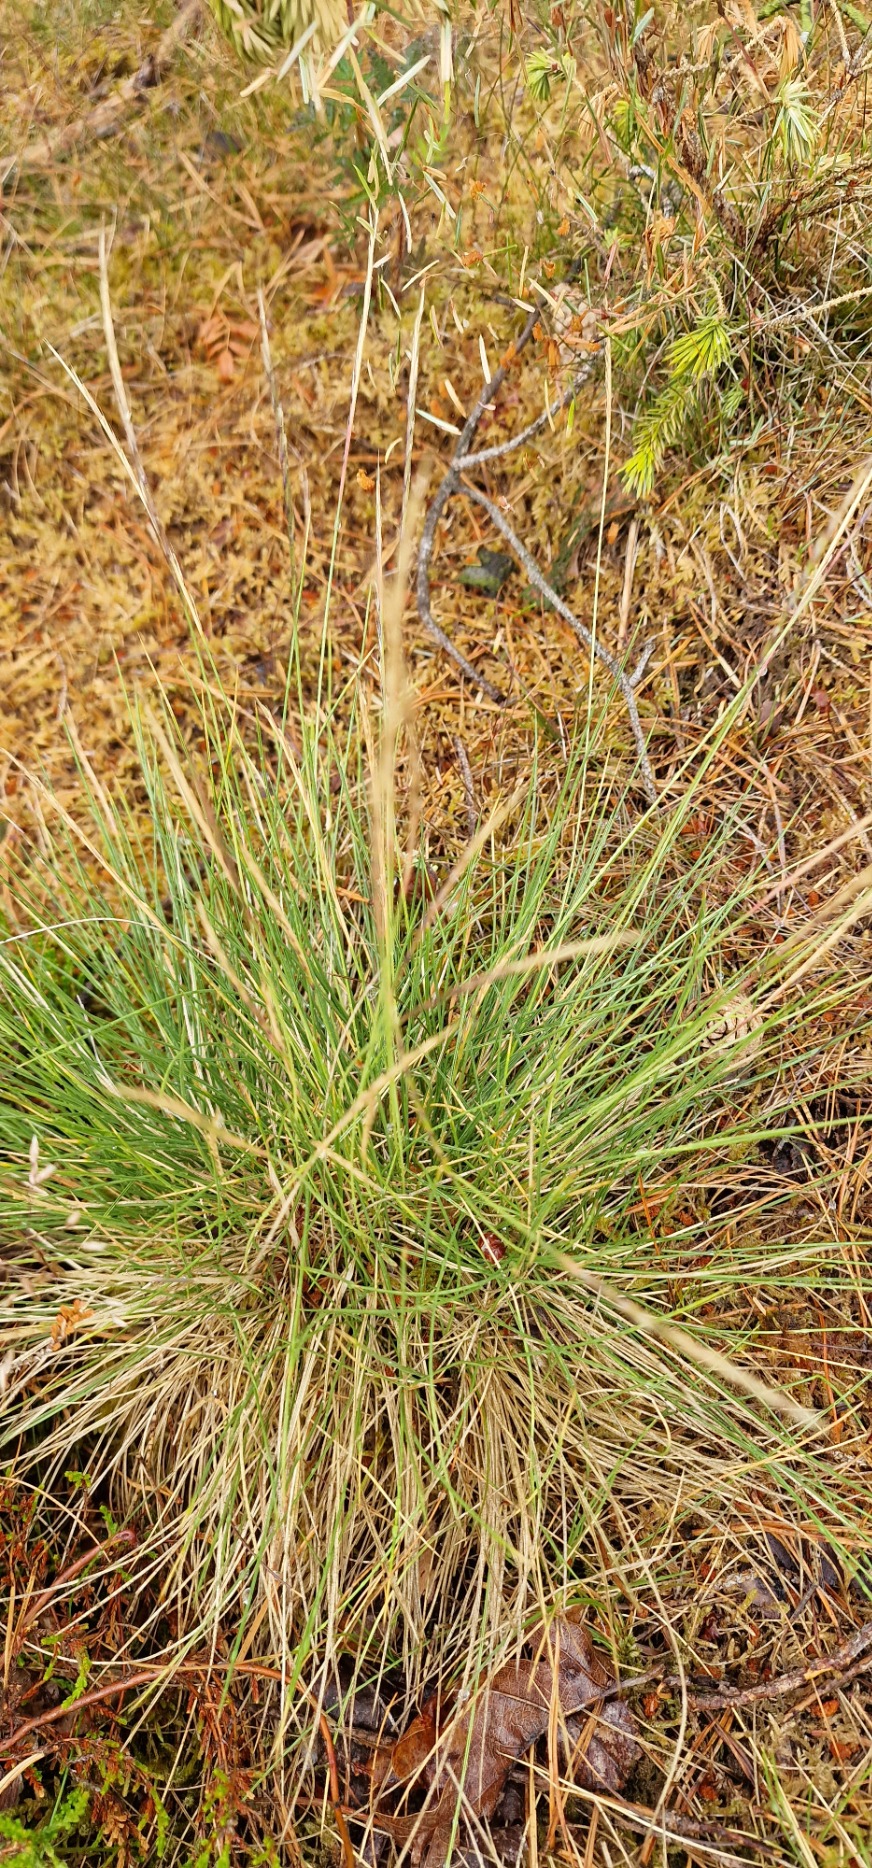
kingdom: Plantae
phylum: Tracheophyta
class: Liliopsida
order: Poales
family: Poaceae
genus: Nardus
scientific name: Nardus stricta
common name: Katteskæg
